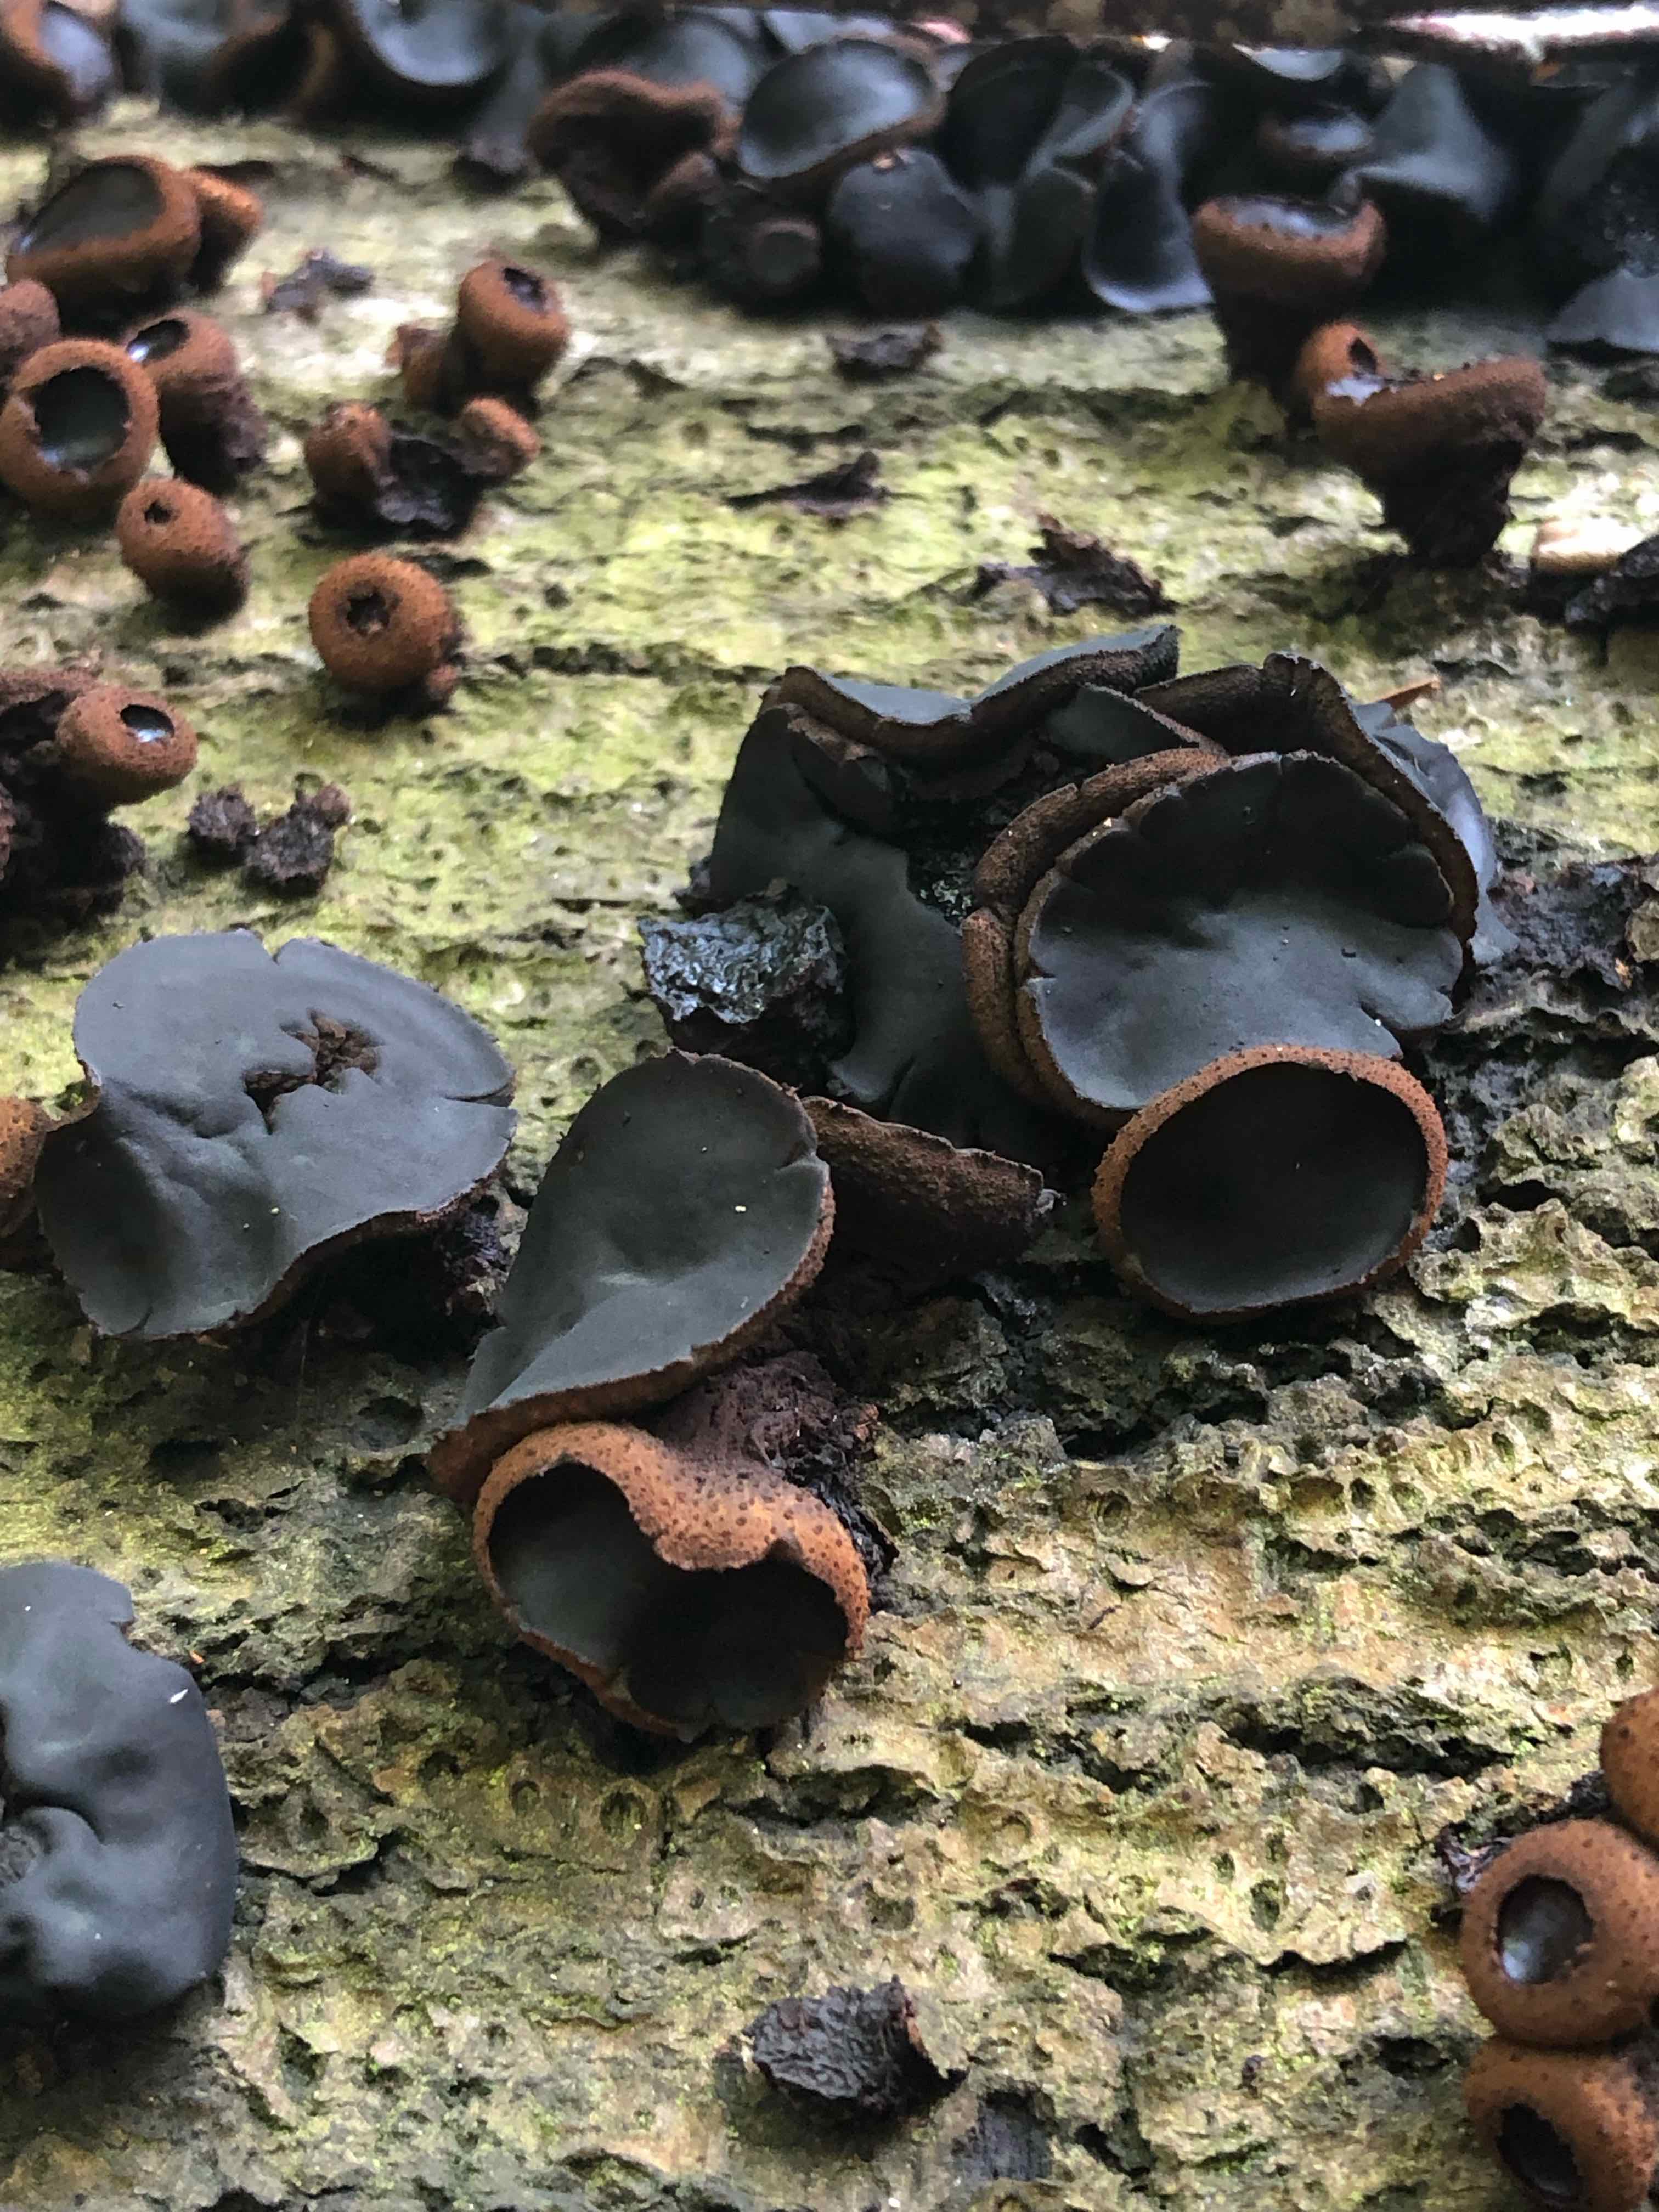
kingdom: Fungi
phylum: Ascomycota
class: Leotiomycetes
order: Phacidiales
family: Phacidiaceae
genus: Bulgaria
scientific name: Bulgaria inquinans
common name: afsmittende topsvamp
